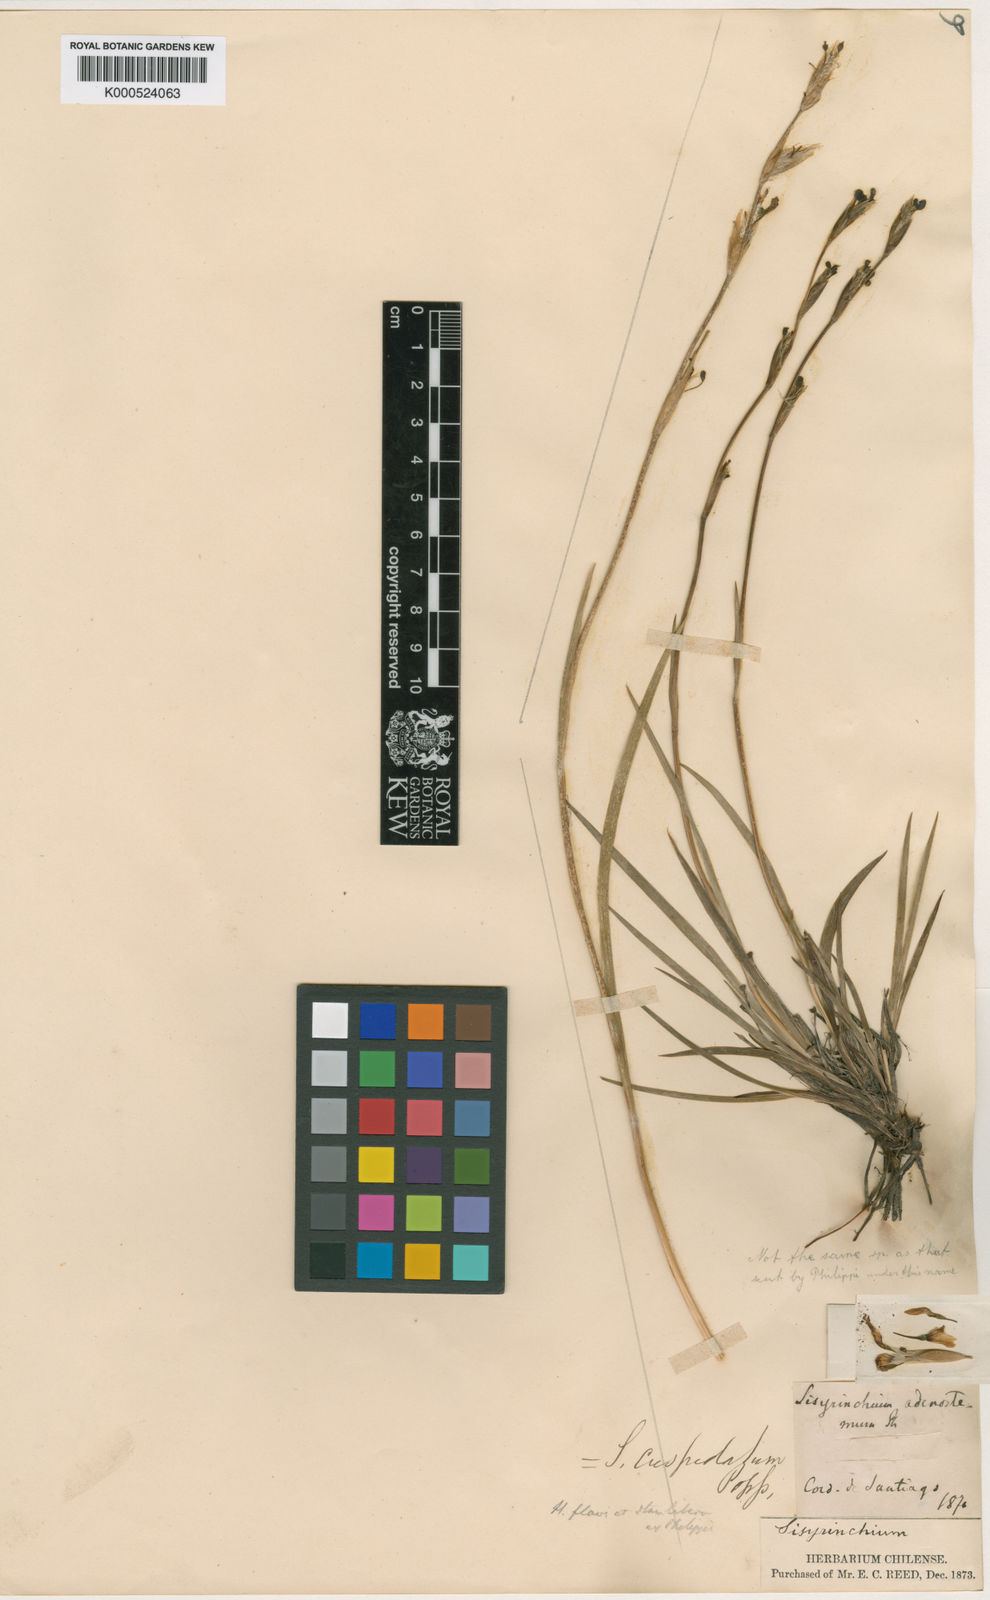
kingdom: Plantae
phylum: Tracheophyta
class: Liliopsida
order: Asparagales
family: Iridaceae
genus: Sisyrinchium
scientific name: Sisyrinchium cuspidatum
